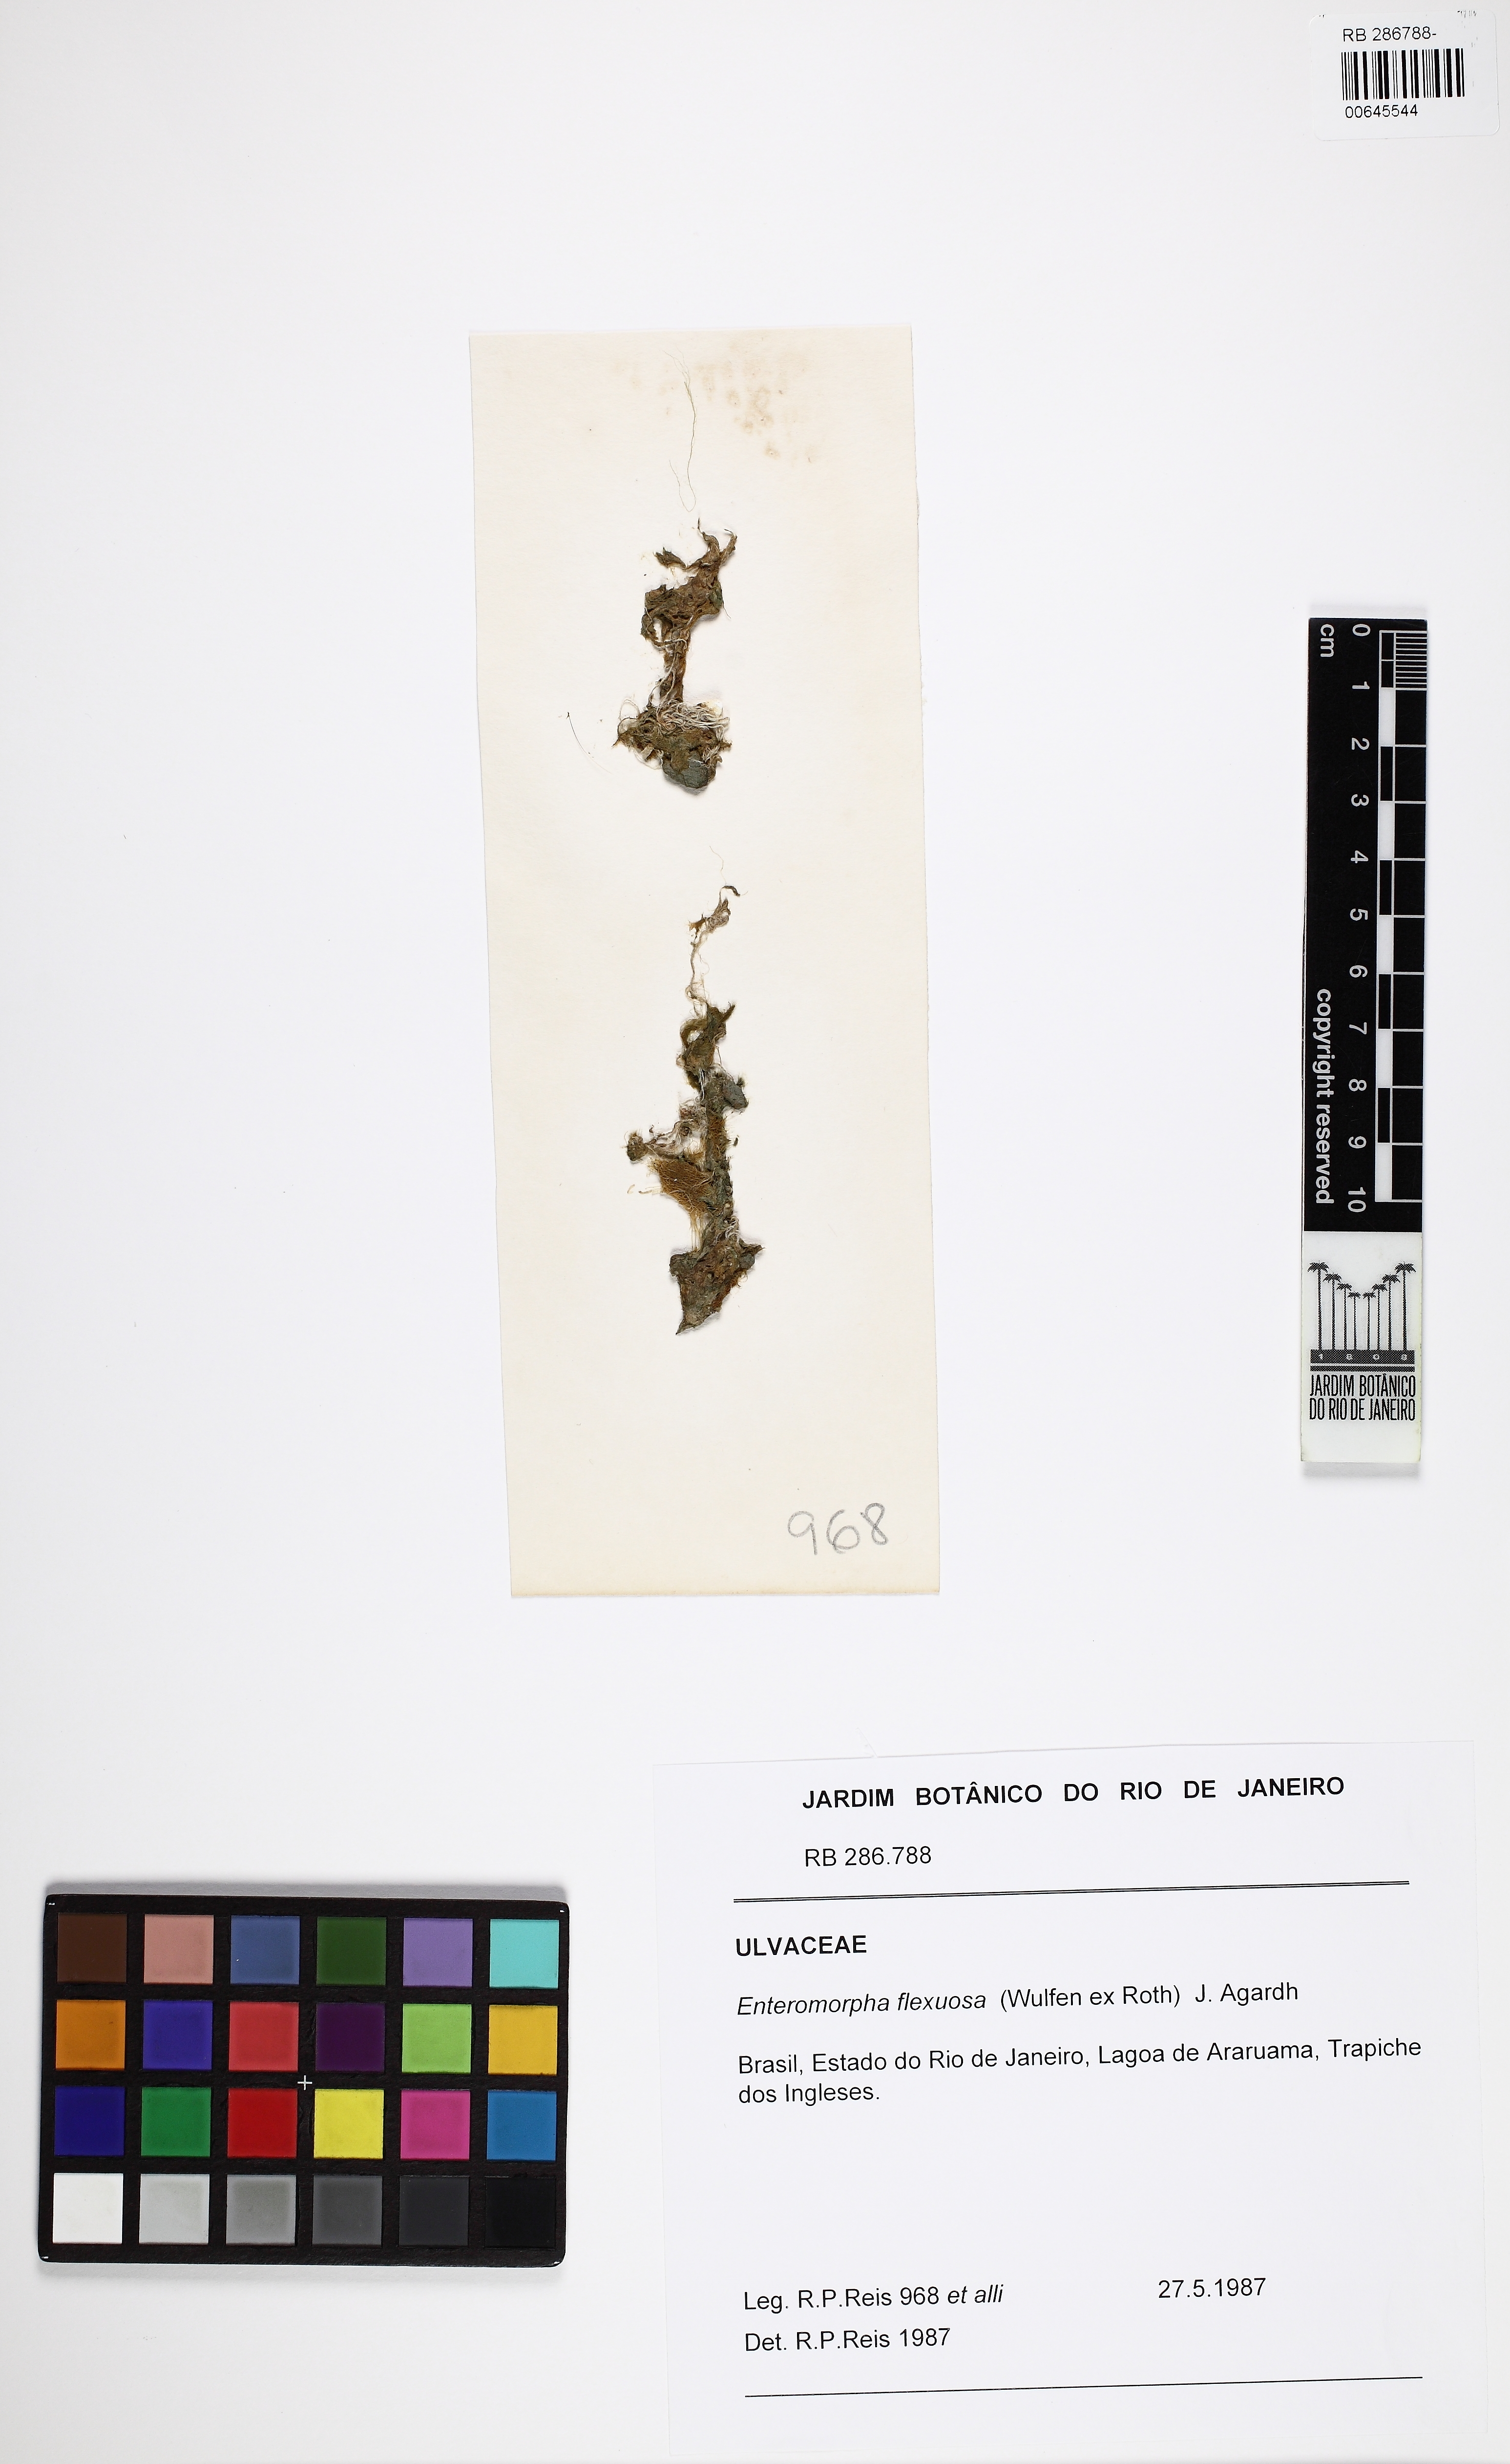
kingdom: Plantae
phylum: Chlorophyta
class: Ulvophyceae
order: Ulvales
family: Ulvaceae
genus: Ulva
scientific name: Ulva flexuosa
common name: Flexuous gutweed
